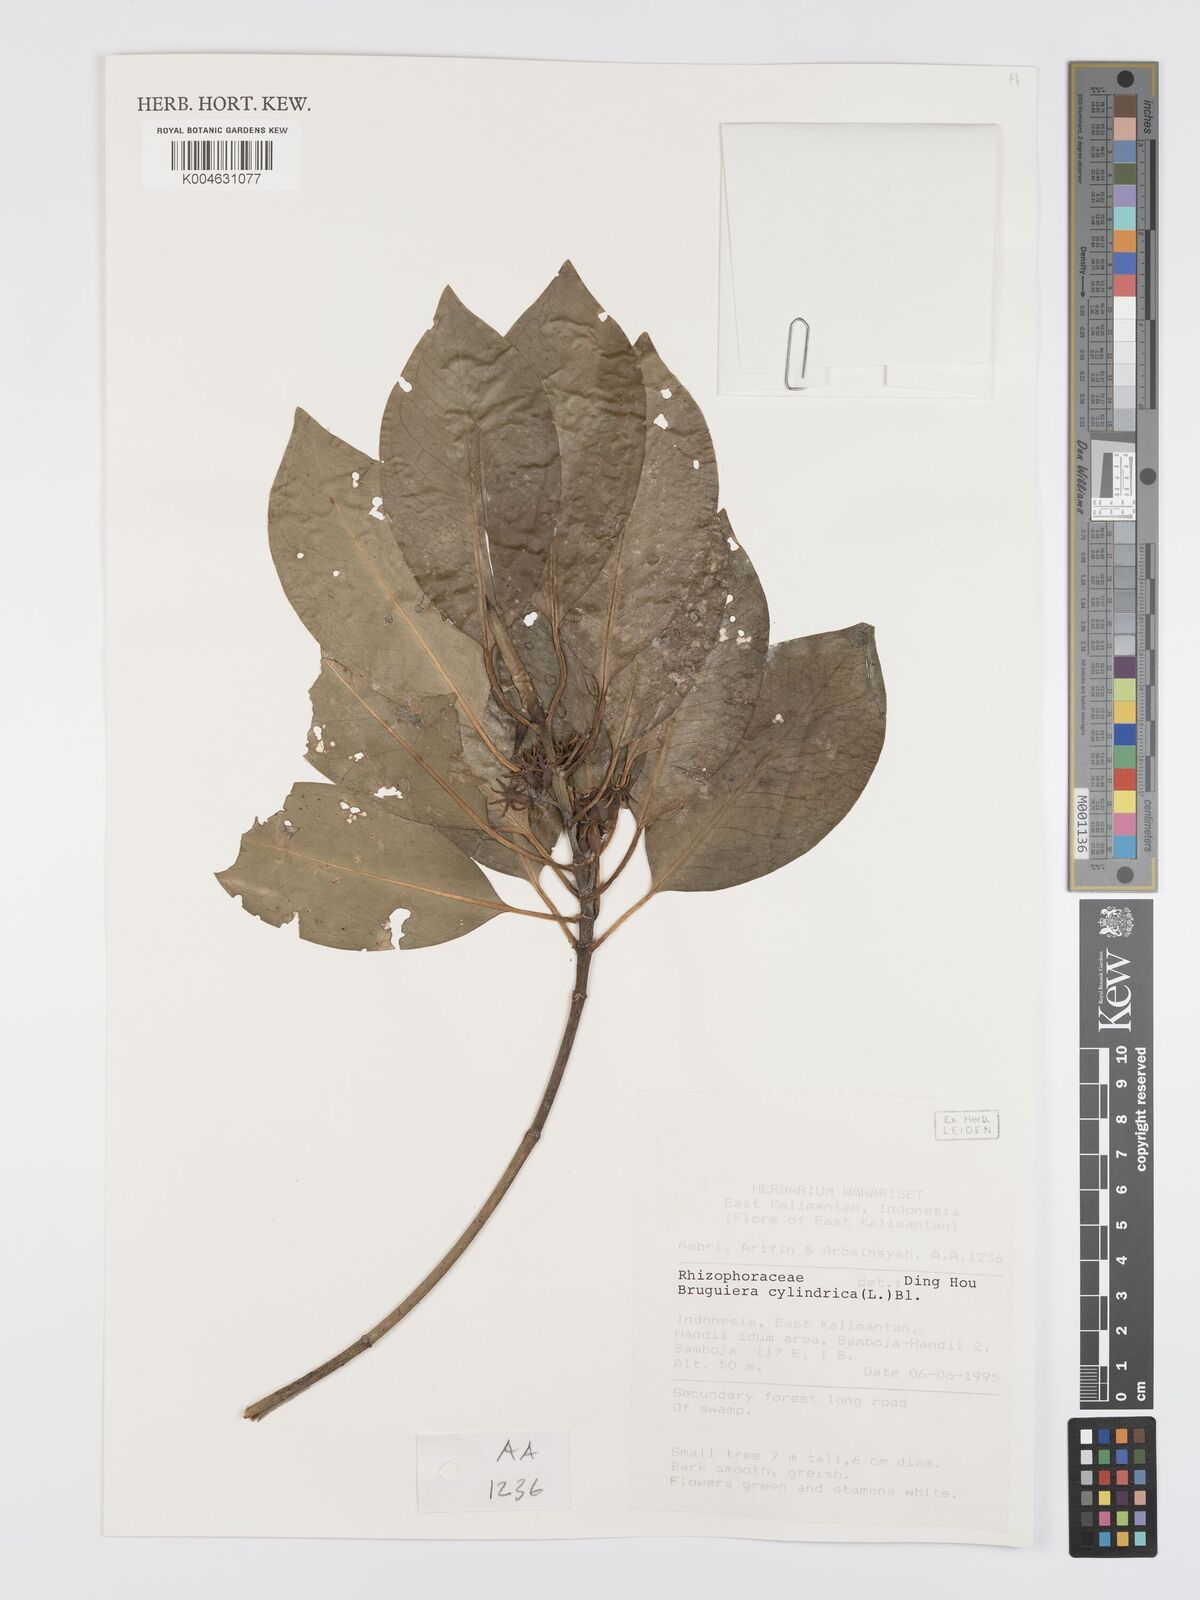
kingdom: Plantae
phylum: Tracheophyta
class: Magnoliopsida
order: Malpighiales
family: Rhizophoraceae
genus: Bruguiera
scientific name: Bruguiera cylindrica
